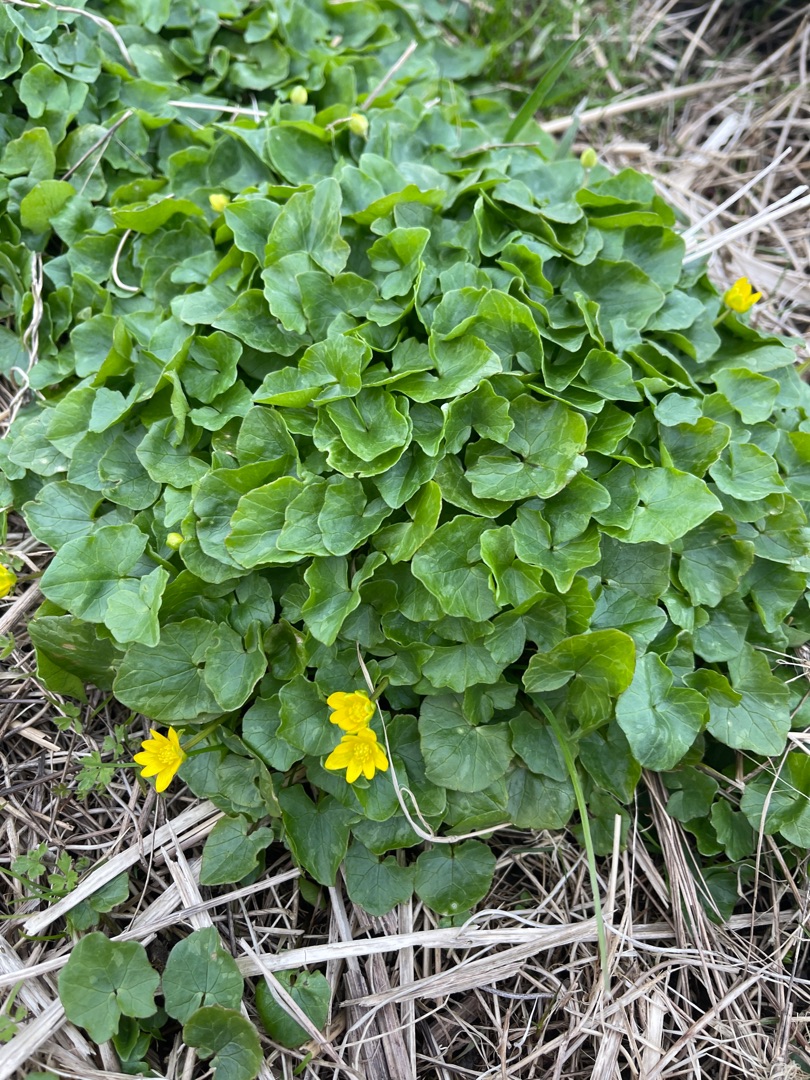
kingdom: Plantae
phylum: Tracheophyta
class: Magnoliopsida
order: Ranunculales
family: Ranunculaceae
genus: Ficaria
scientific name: Ficaria verna
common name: Vorterod
